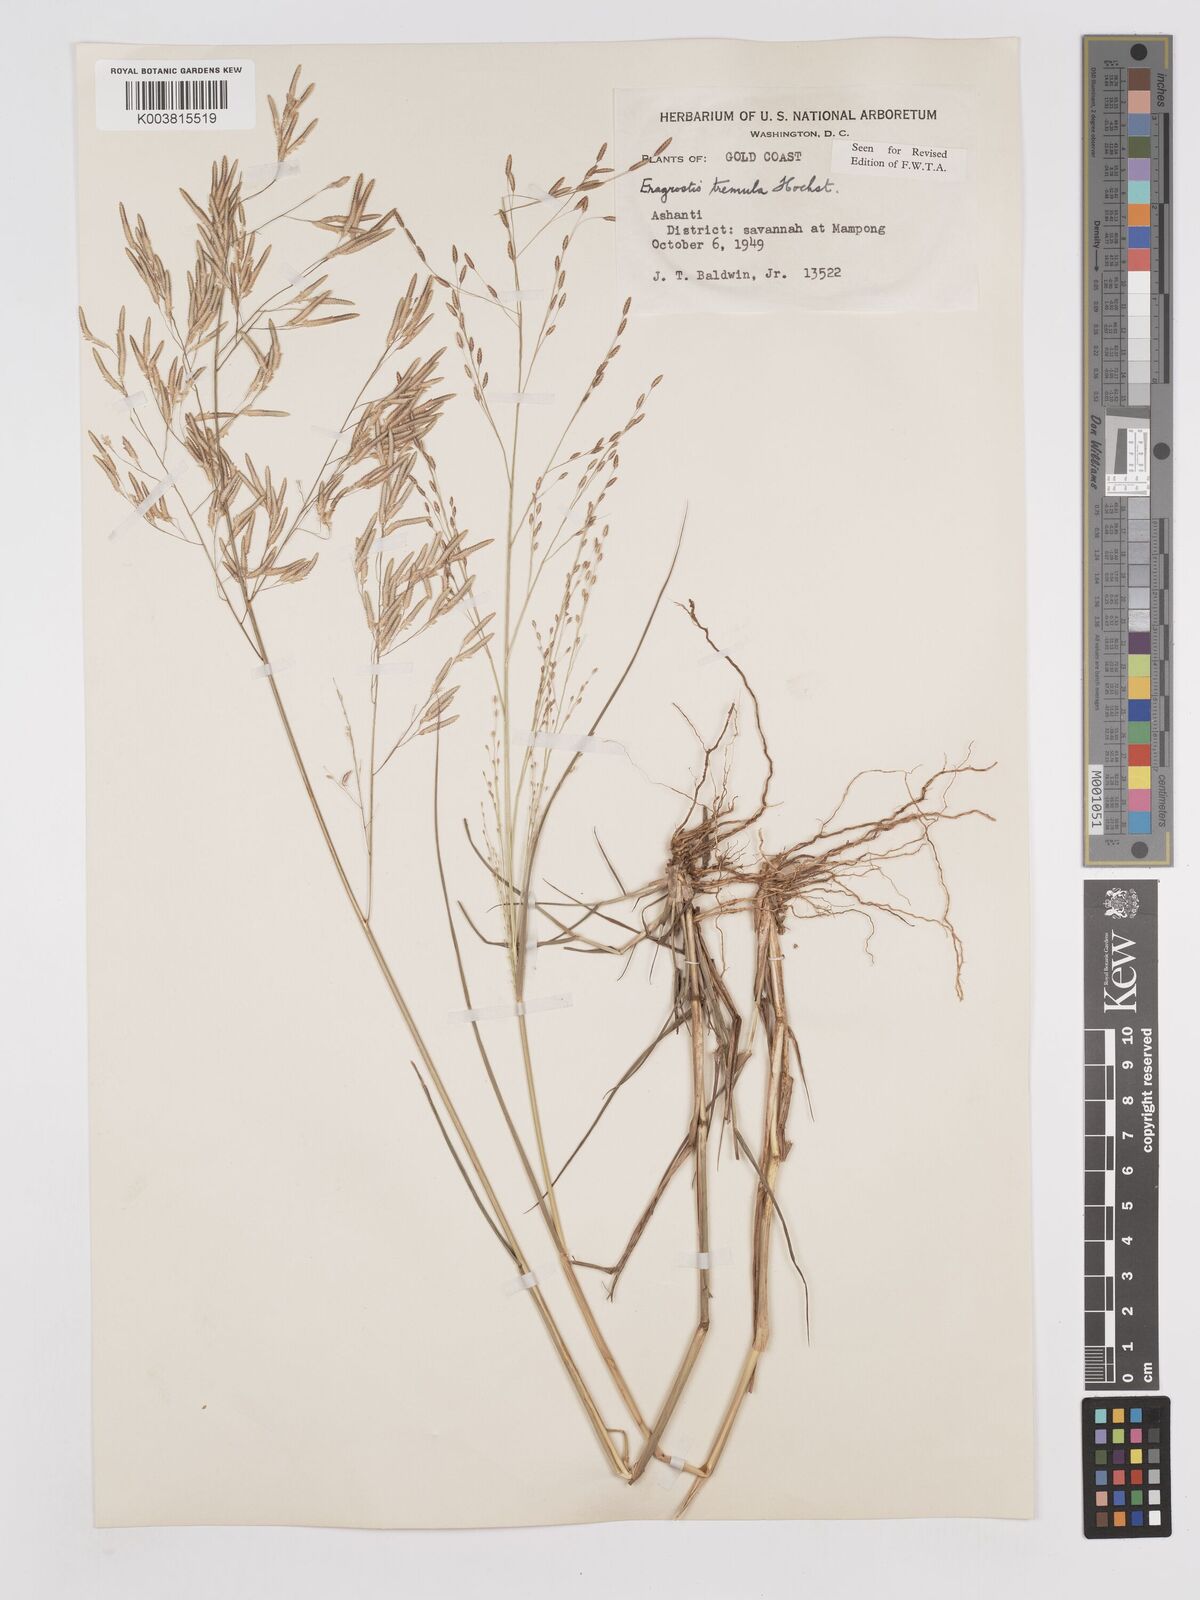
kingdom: Plantae
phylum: Tracheophyta
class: Liliopsida
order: Poales
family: Poaceae
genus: Eragrostis
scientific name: Eragrostis tremula
